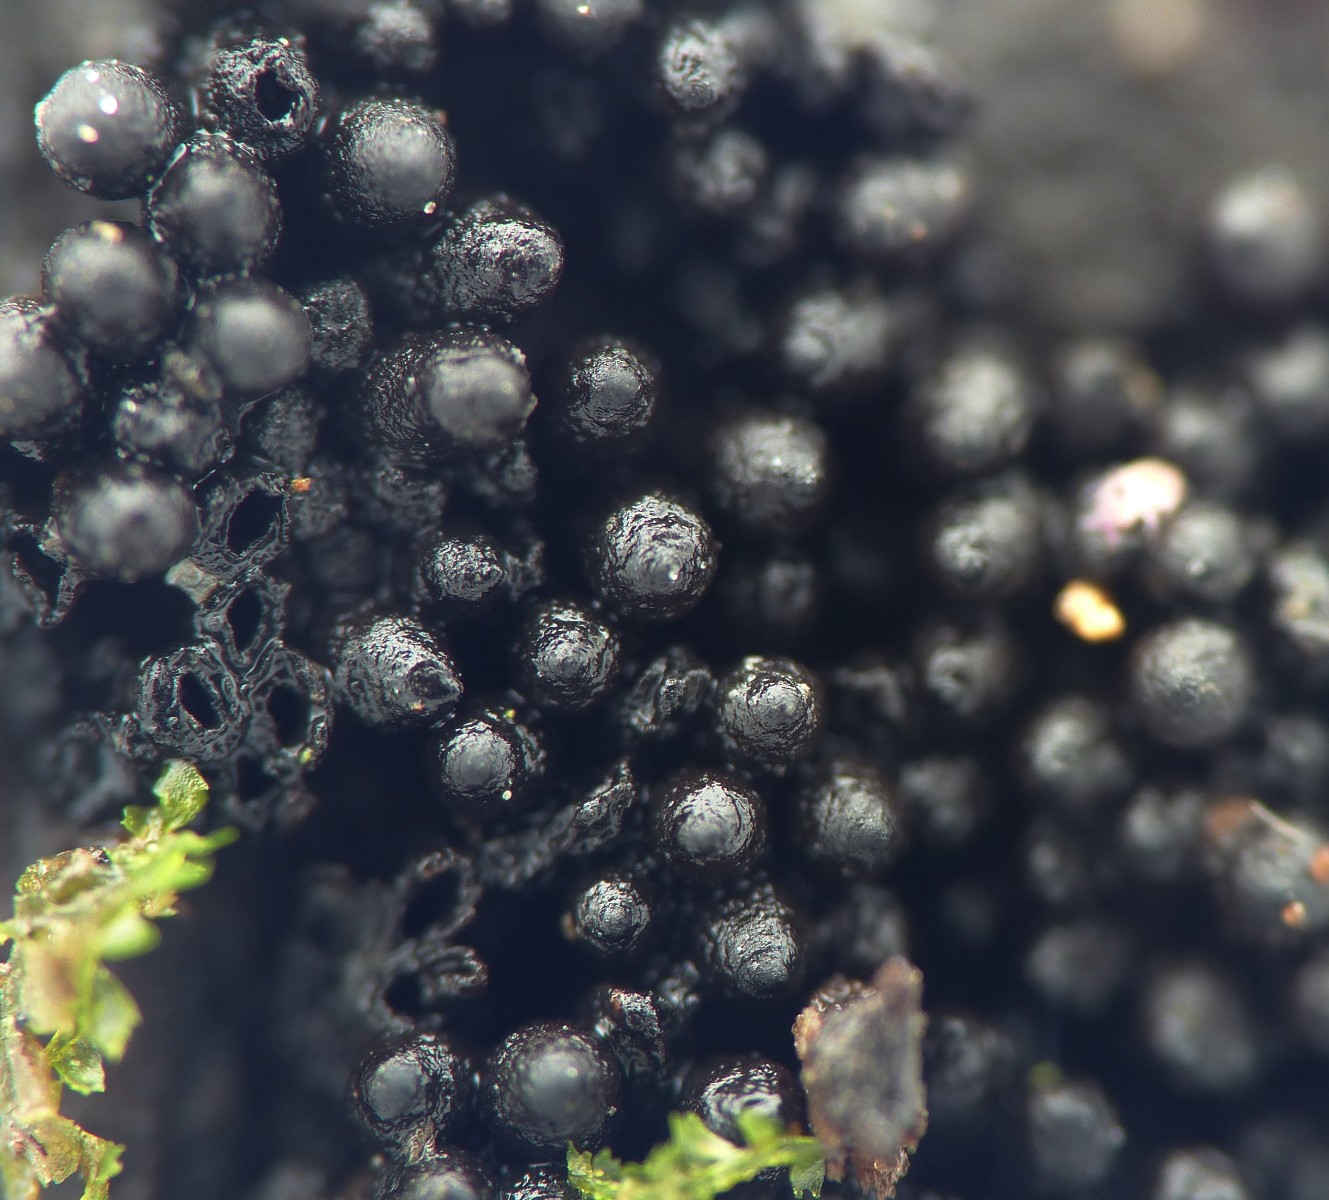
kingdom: Fungi
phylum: Ascomycota
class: Sordariomycetes
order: Sordariales
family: Bombardiaceae
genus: Bombardia
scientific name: Bombardia bombarda
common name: lædersæk-kernesvamp
